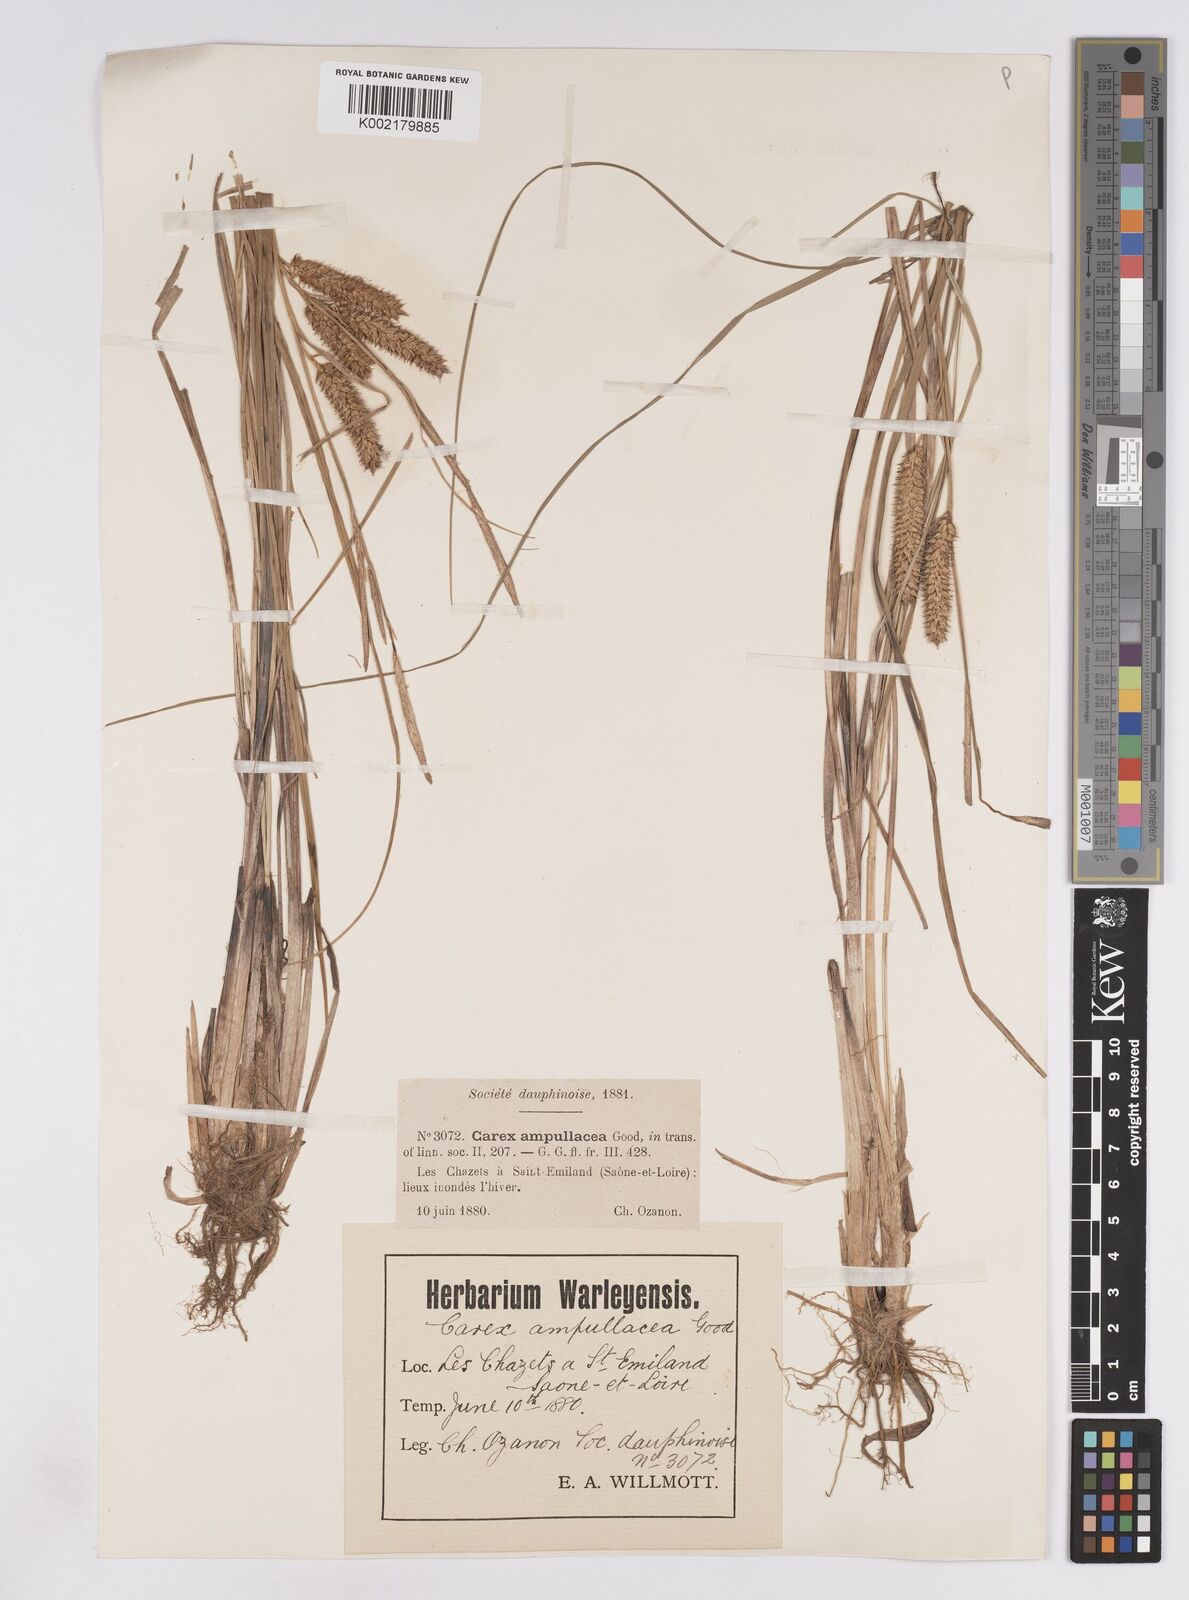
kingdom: Plantae
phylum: Tracheophyta
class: Liliopsida
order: Poales
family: Cyperaceae
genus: Carex
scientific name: Carex rostrata
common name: Bottle sedge
